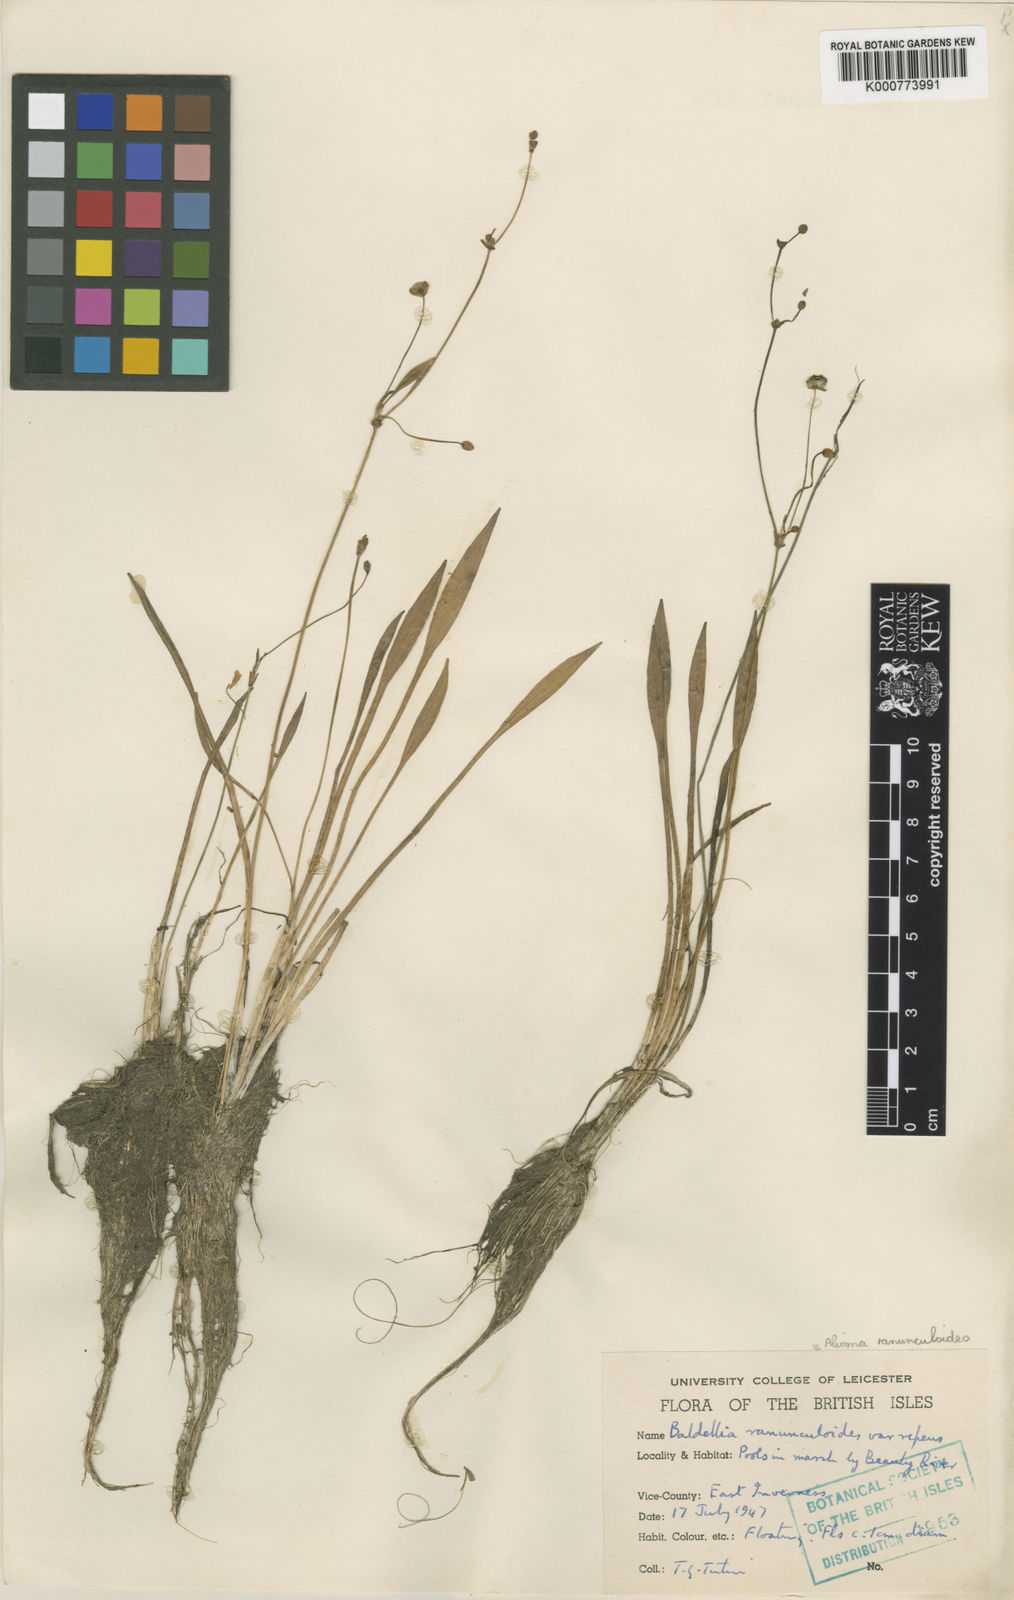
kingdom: Plantae
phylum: Tracheophyta
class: Liliopsida
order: Alismatales
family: Alismataceae
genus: Baldellia
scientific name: Baldellia ranunculoides
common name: Lesser water-plantain
